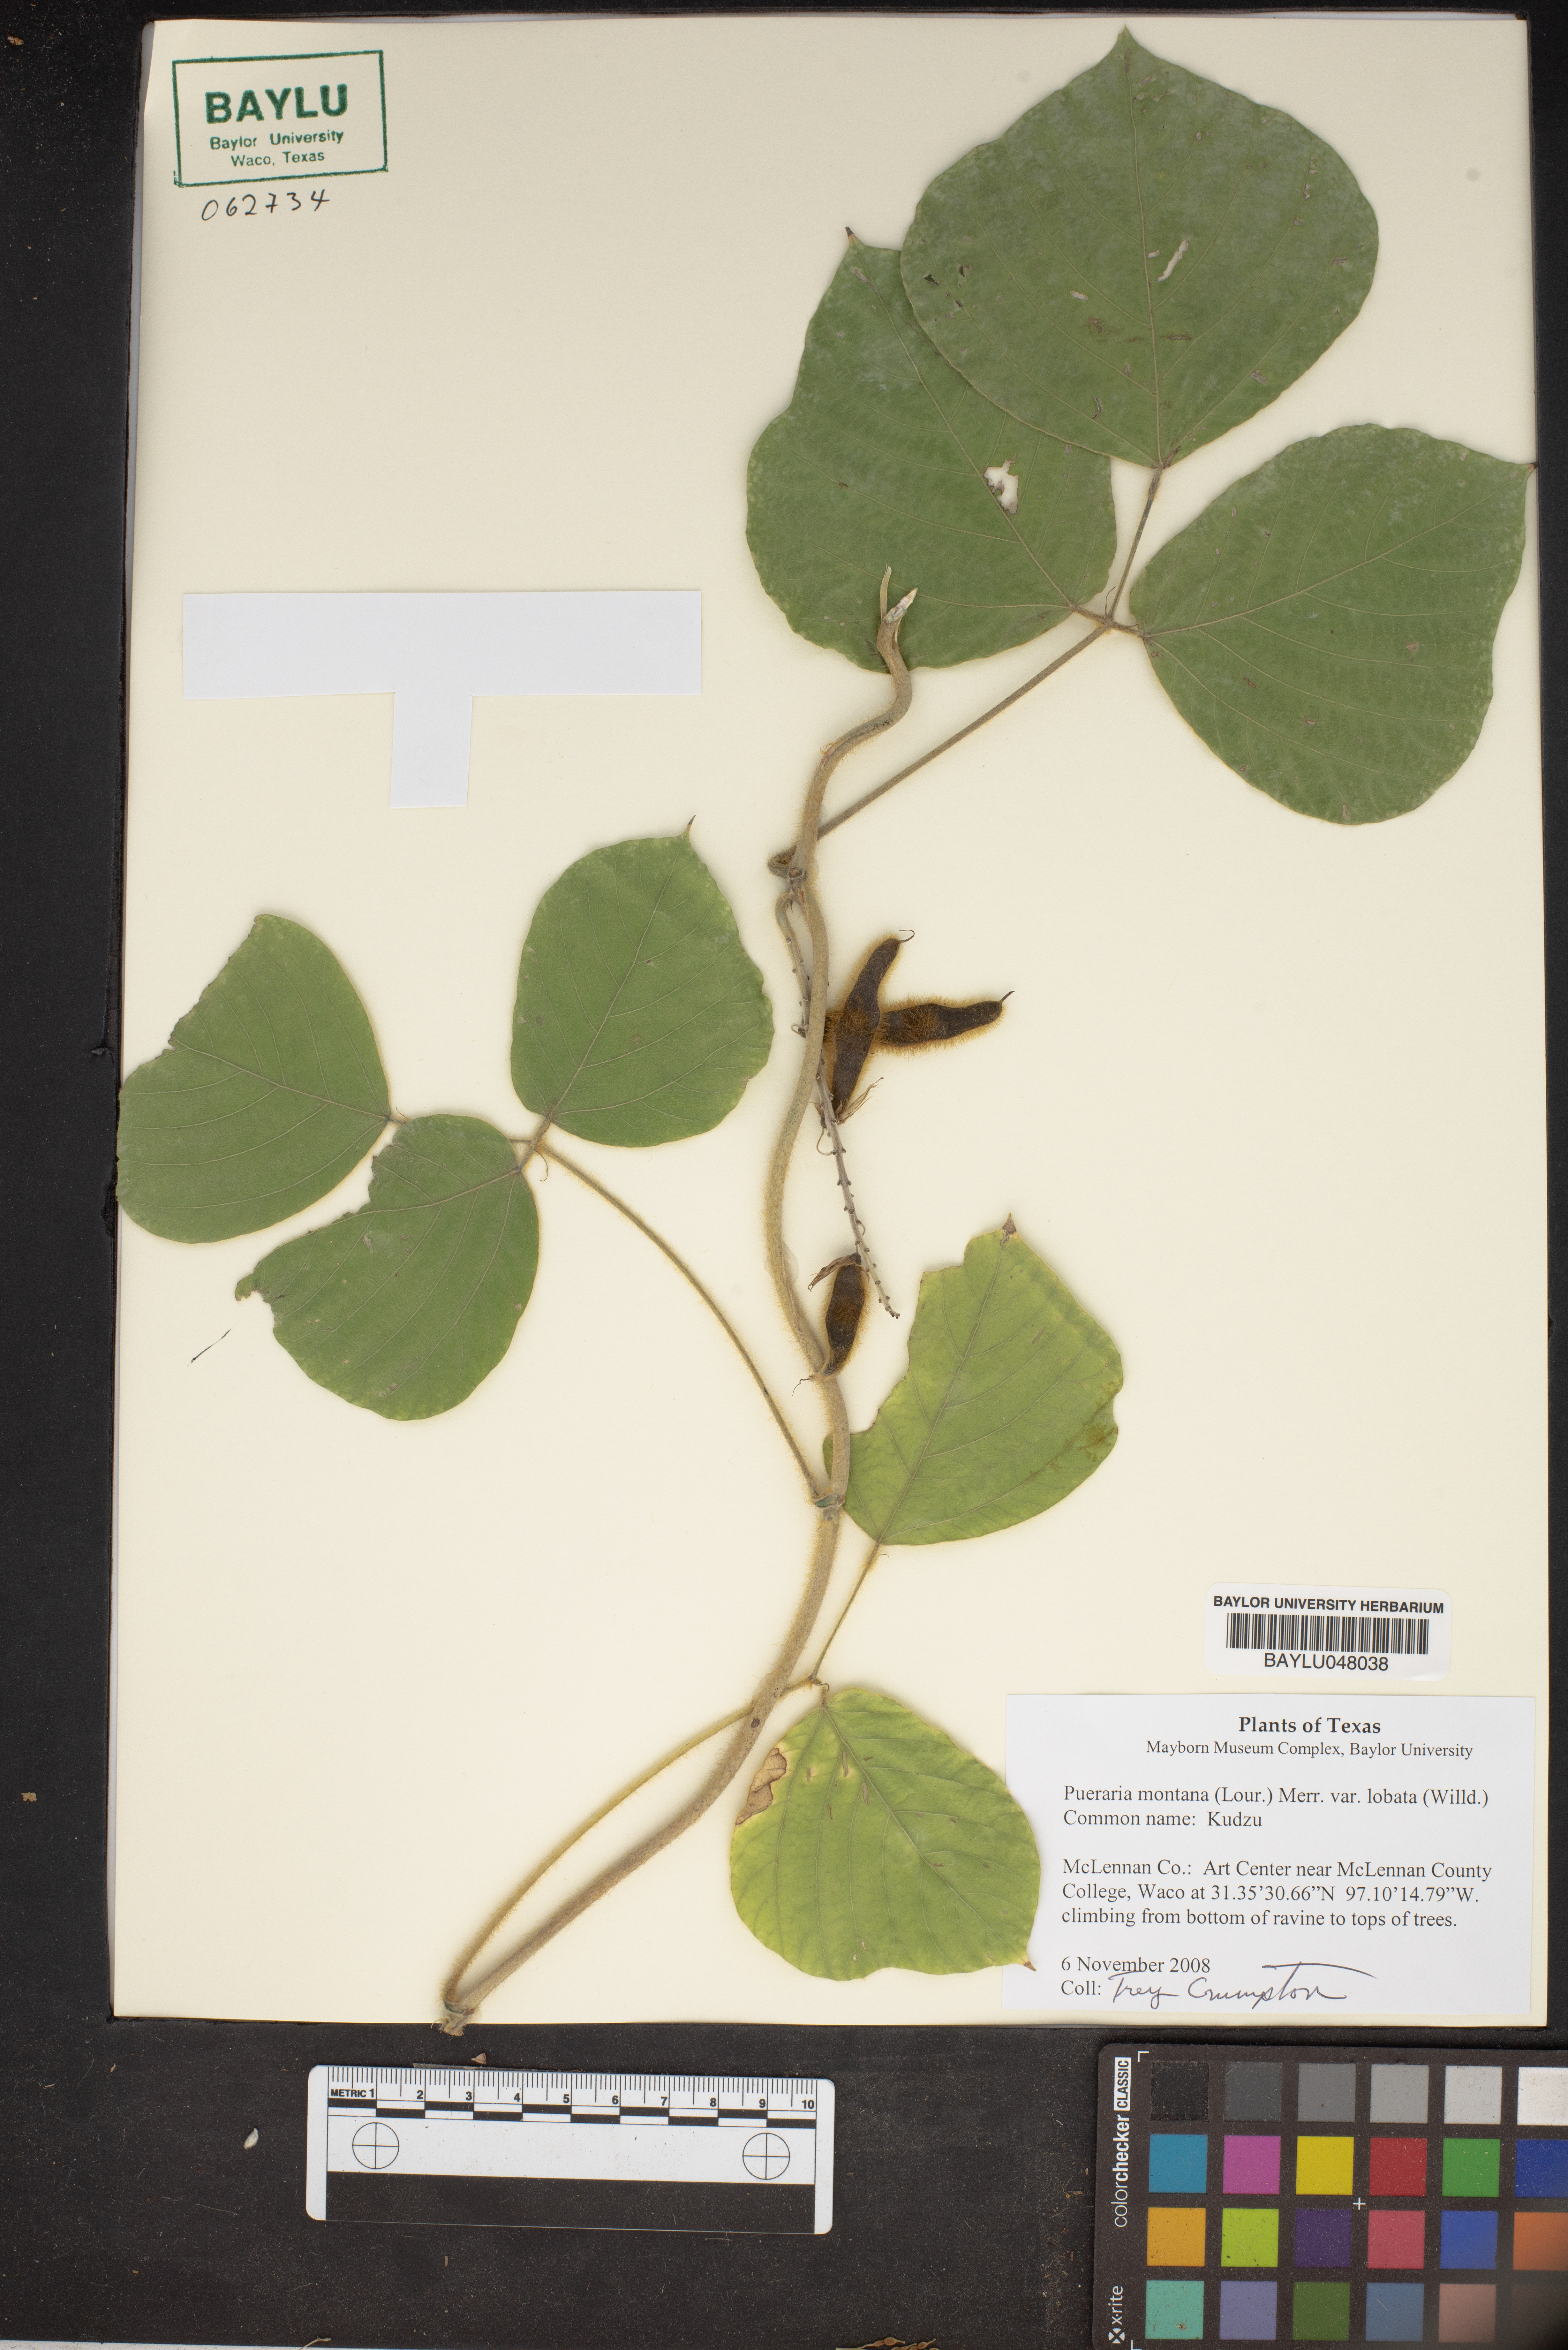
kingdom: Plantae
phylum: Tracheophyta
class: Magnoliopsida
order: Fabales
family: Fabaceae
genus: Pueraria
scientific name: Pueraria montana
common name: Kudzu
